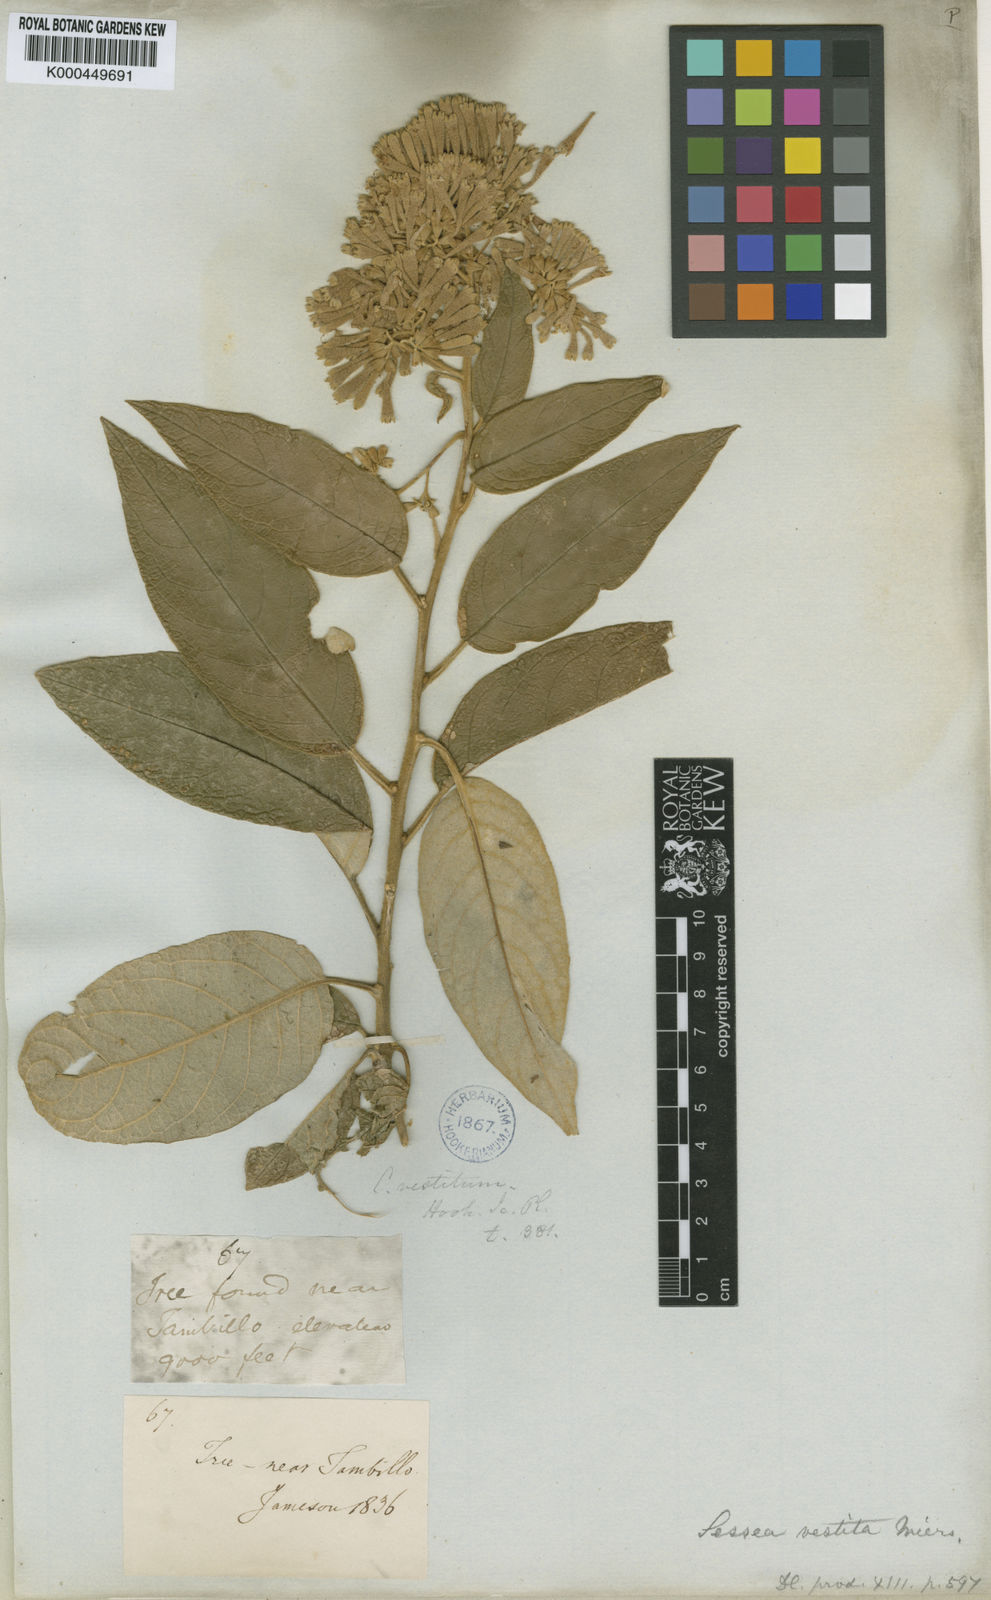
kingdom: Plantae
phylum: Tracheophyta
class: Magnoliopsida
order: Solanales
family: Solanaceae
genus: Sessea
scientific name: Sessea vestita
